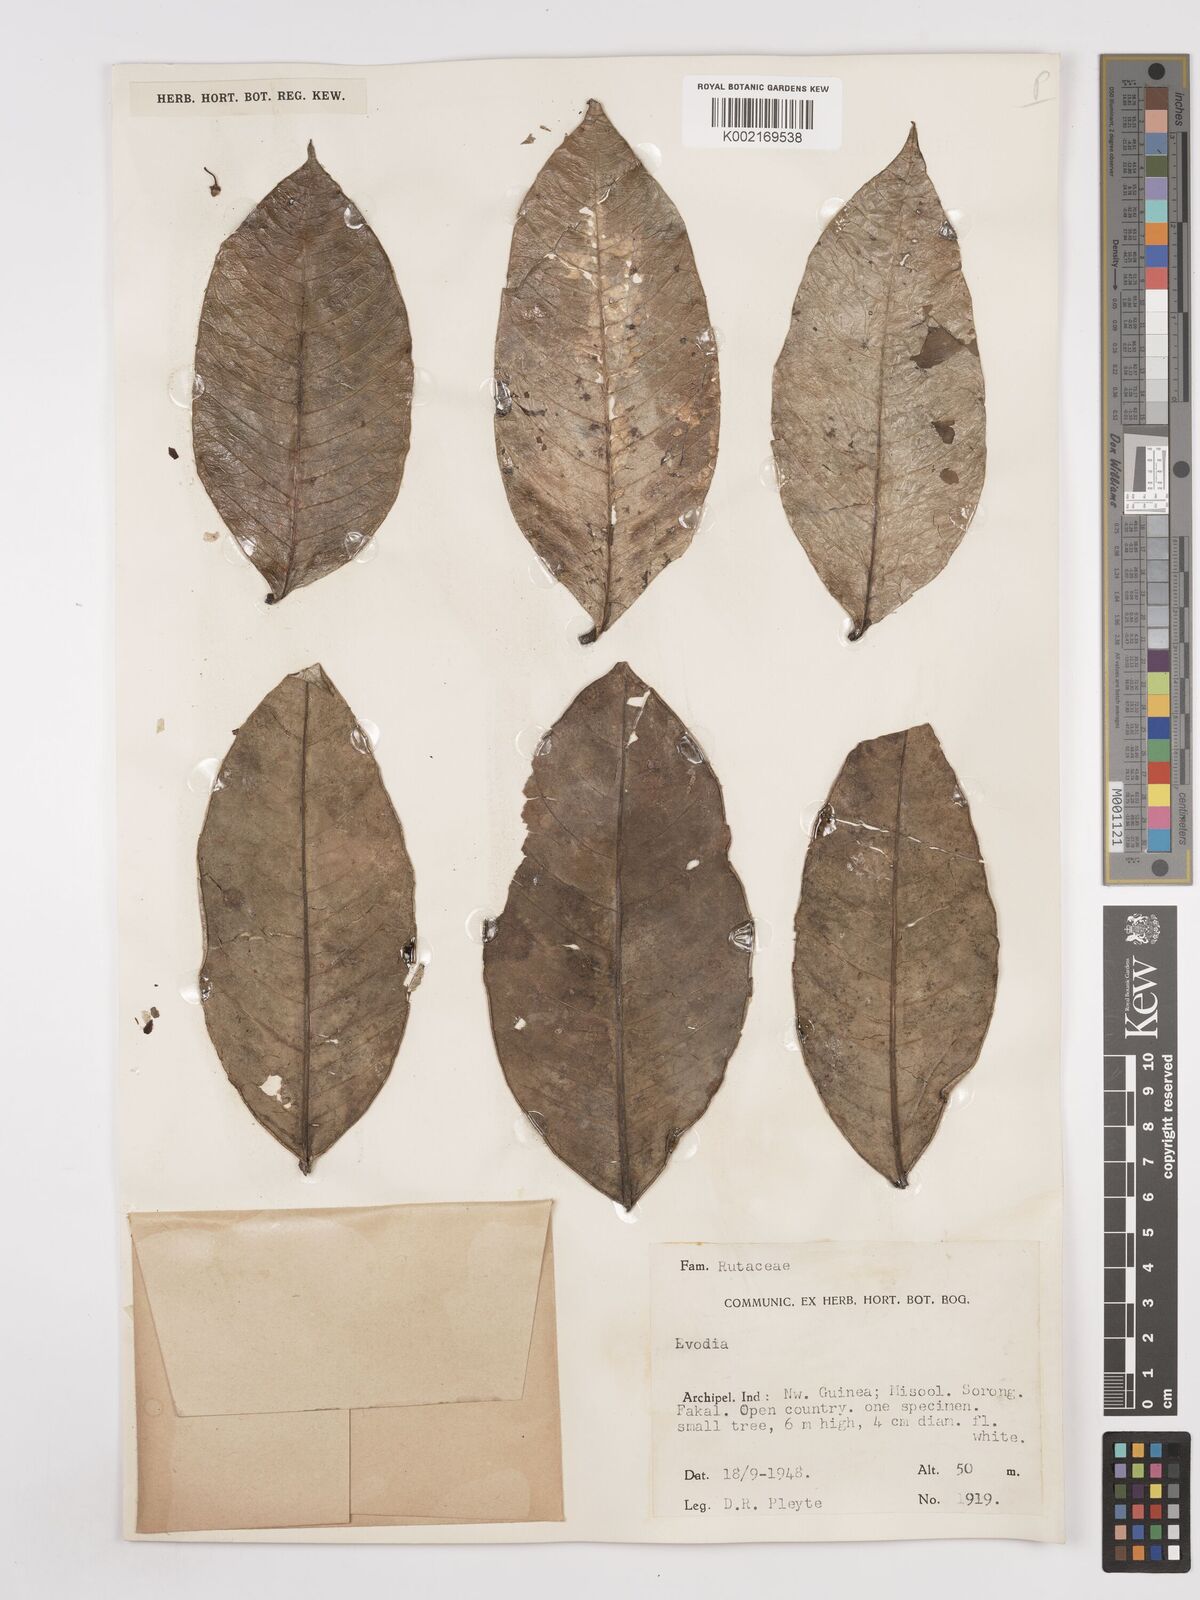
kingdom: Plantae
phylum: Tracheophyta
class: Magnoliopsida
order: Sapindales
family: Rutaceae
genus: Euodia
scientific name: Euodia
